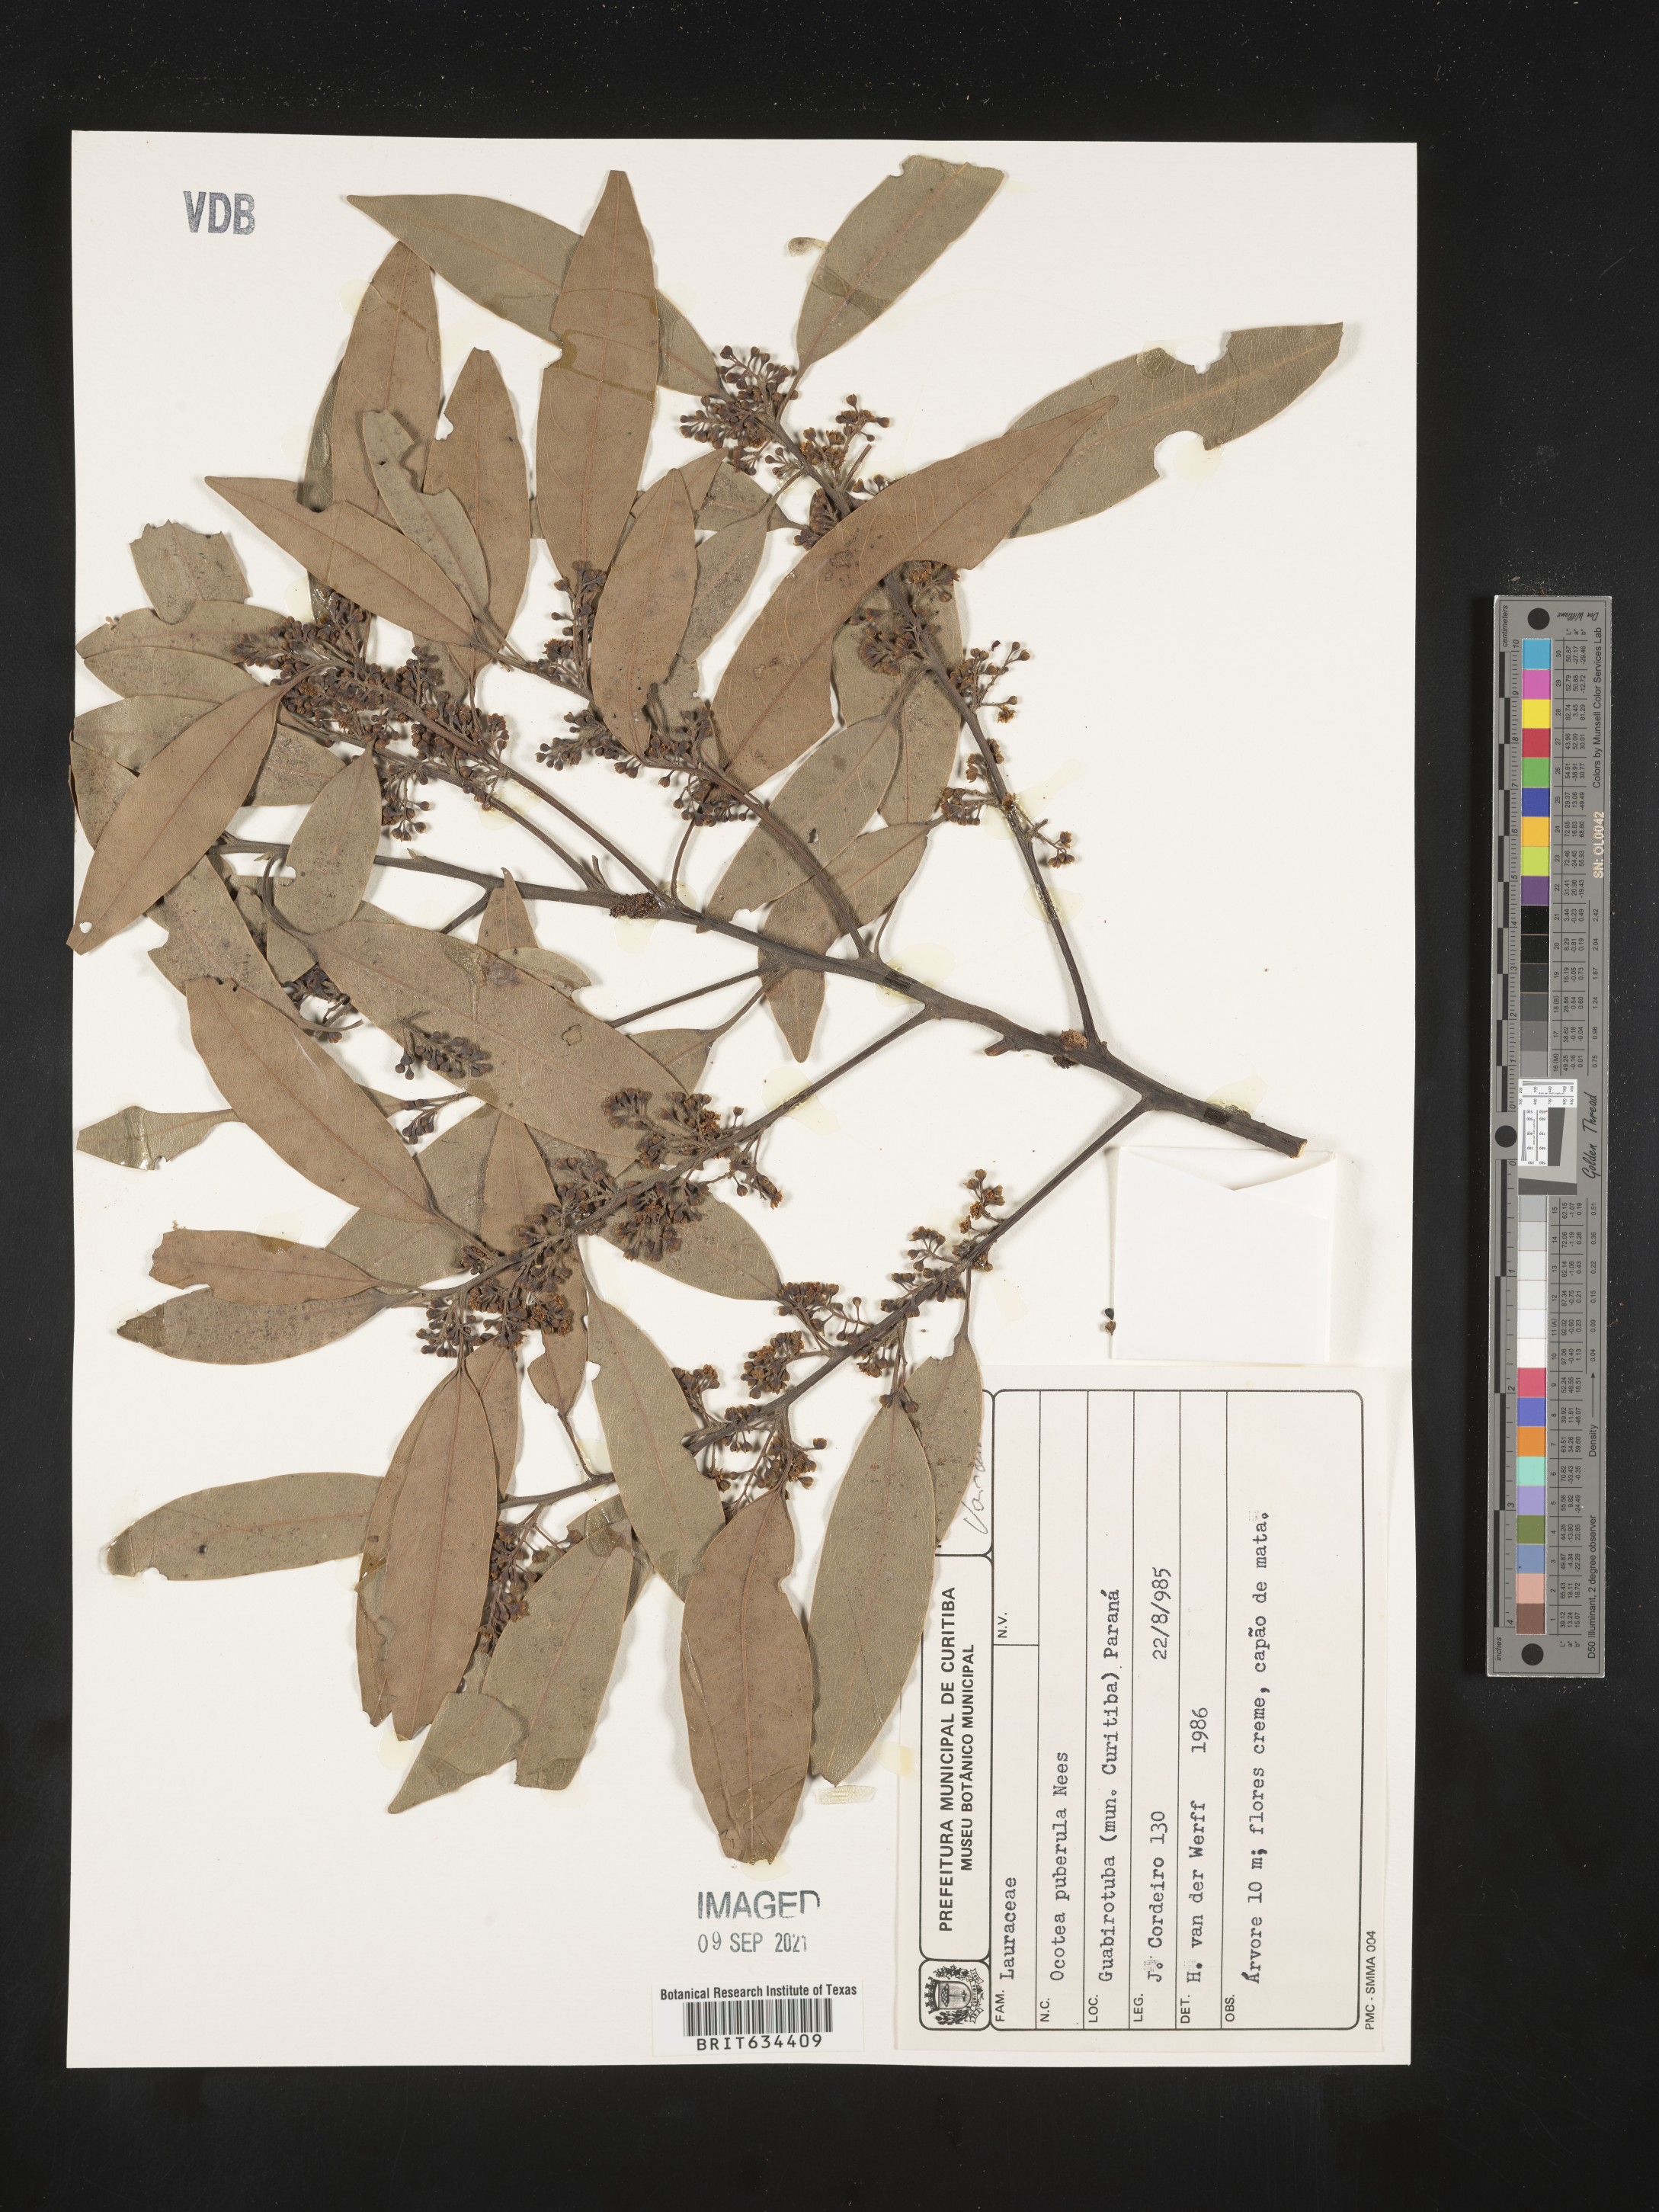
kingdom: Plantae
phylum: Tracheophyta
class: Magnoliopsida
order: Laurales
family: Lauraceae
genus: Ocotea
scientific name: Ocotea
